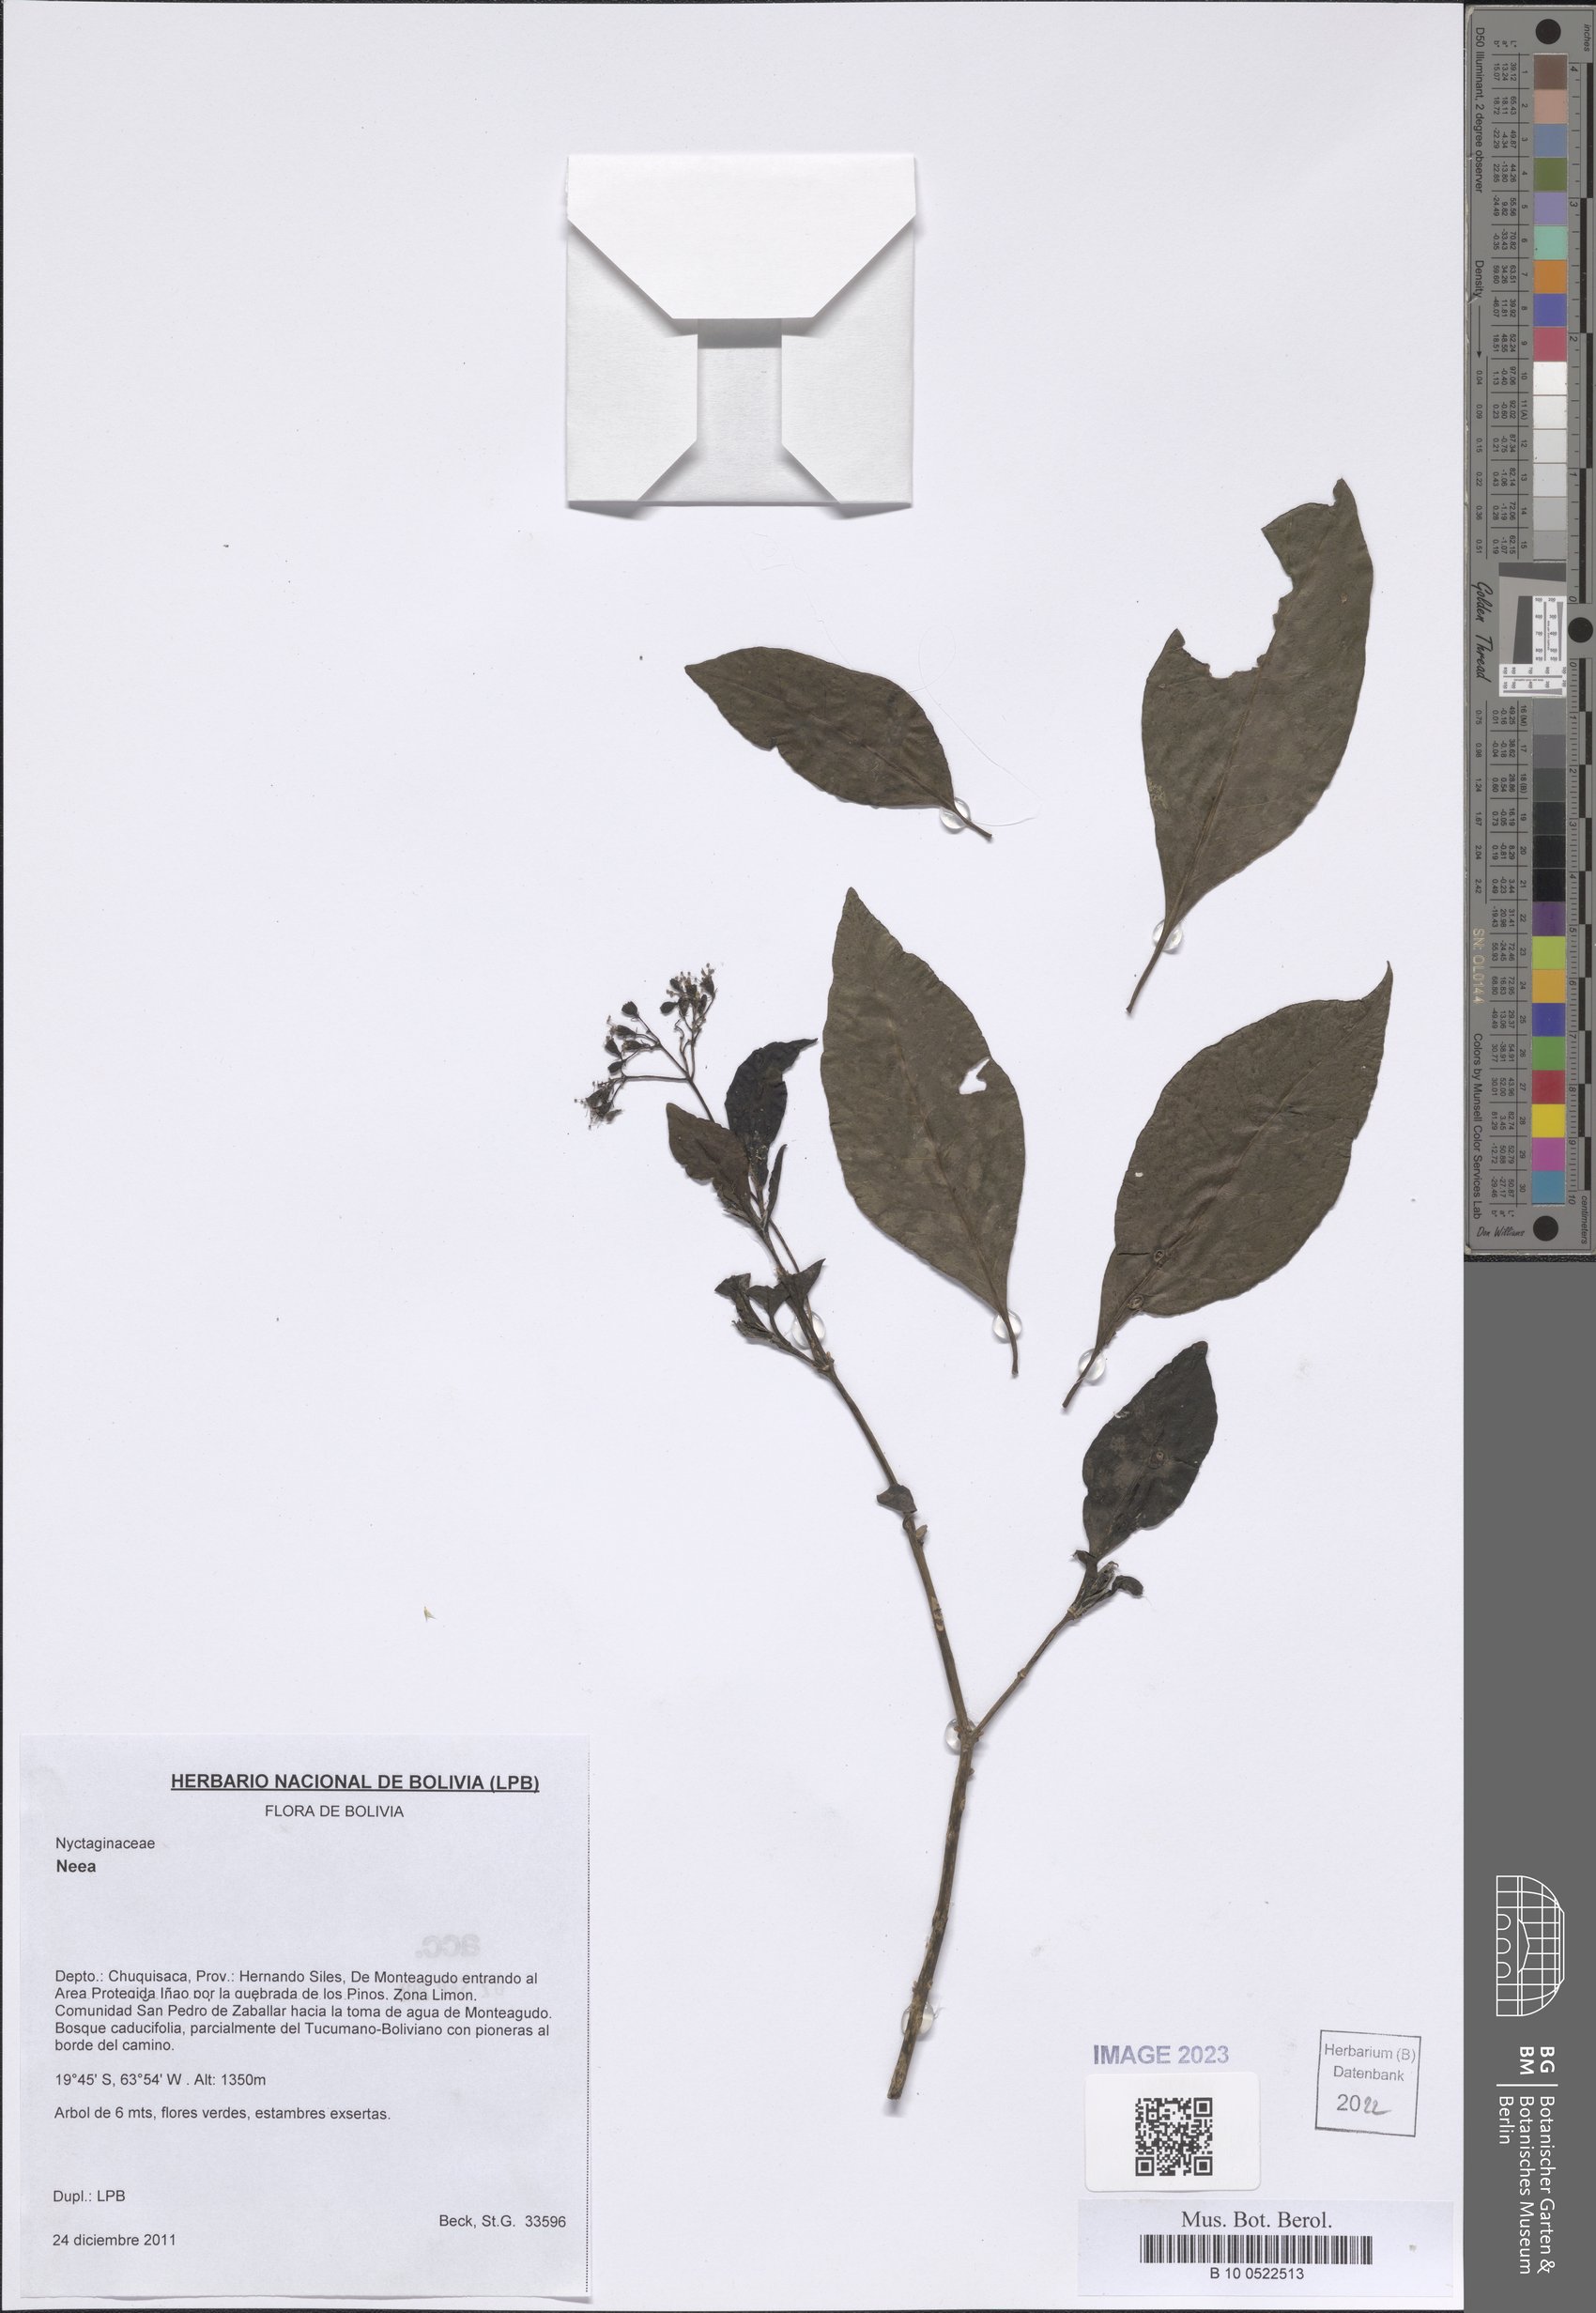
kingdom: Plantae
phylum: Tracheophyta
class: Magnoliopsida
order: Caryophyllales
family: Nyctaginaceae
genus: Neea
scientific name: Neea
